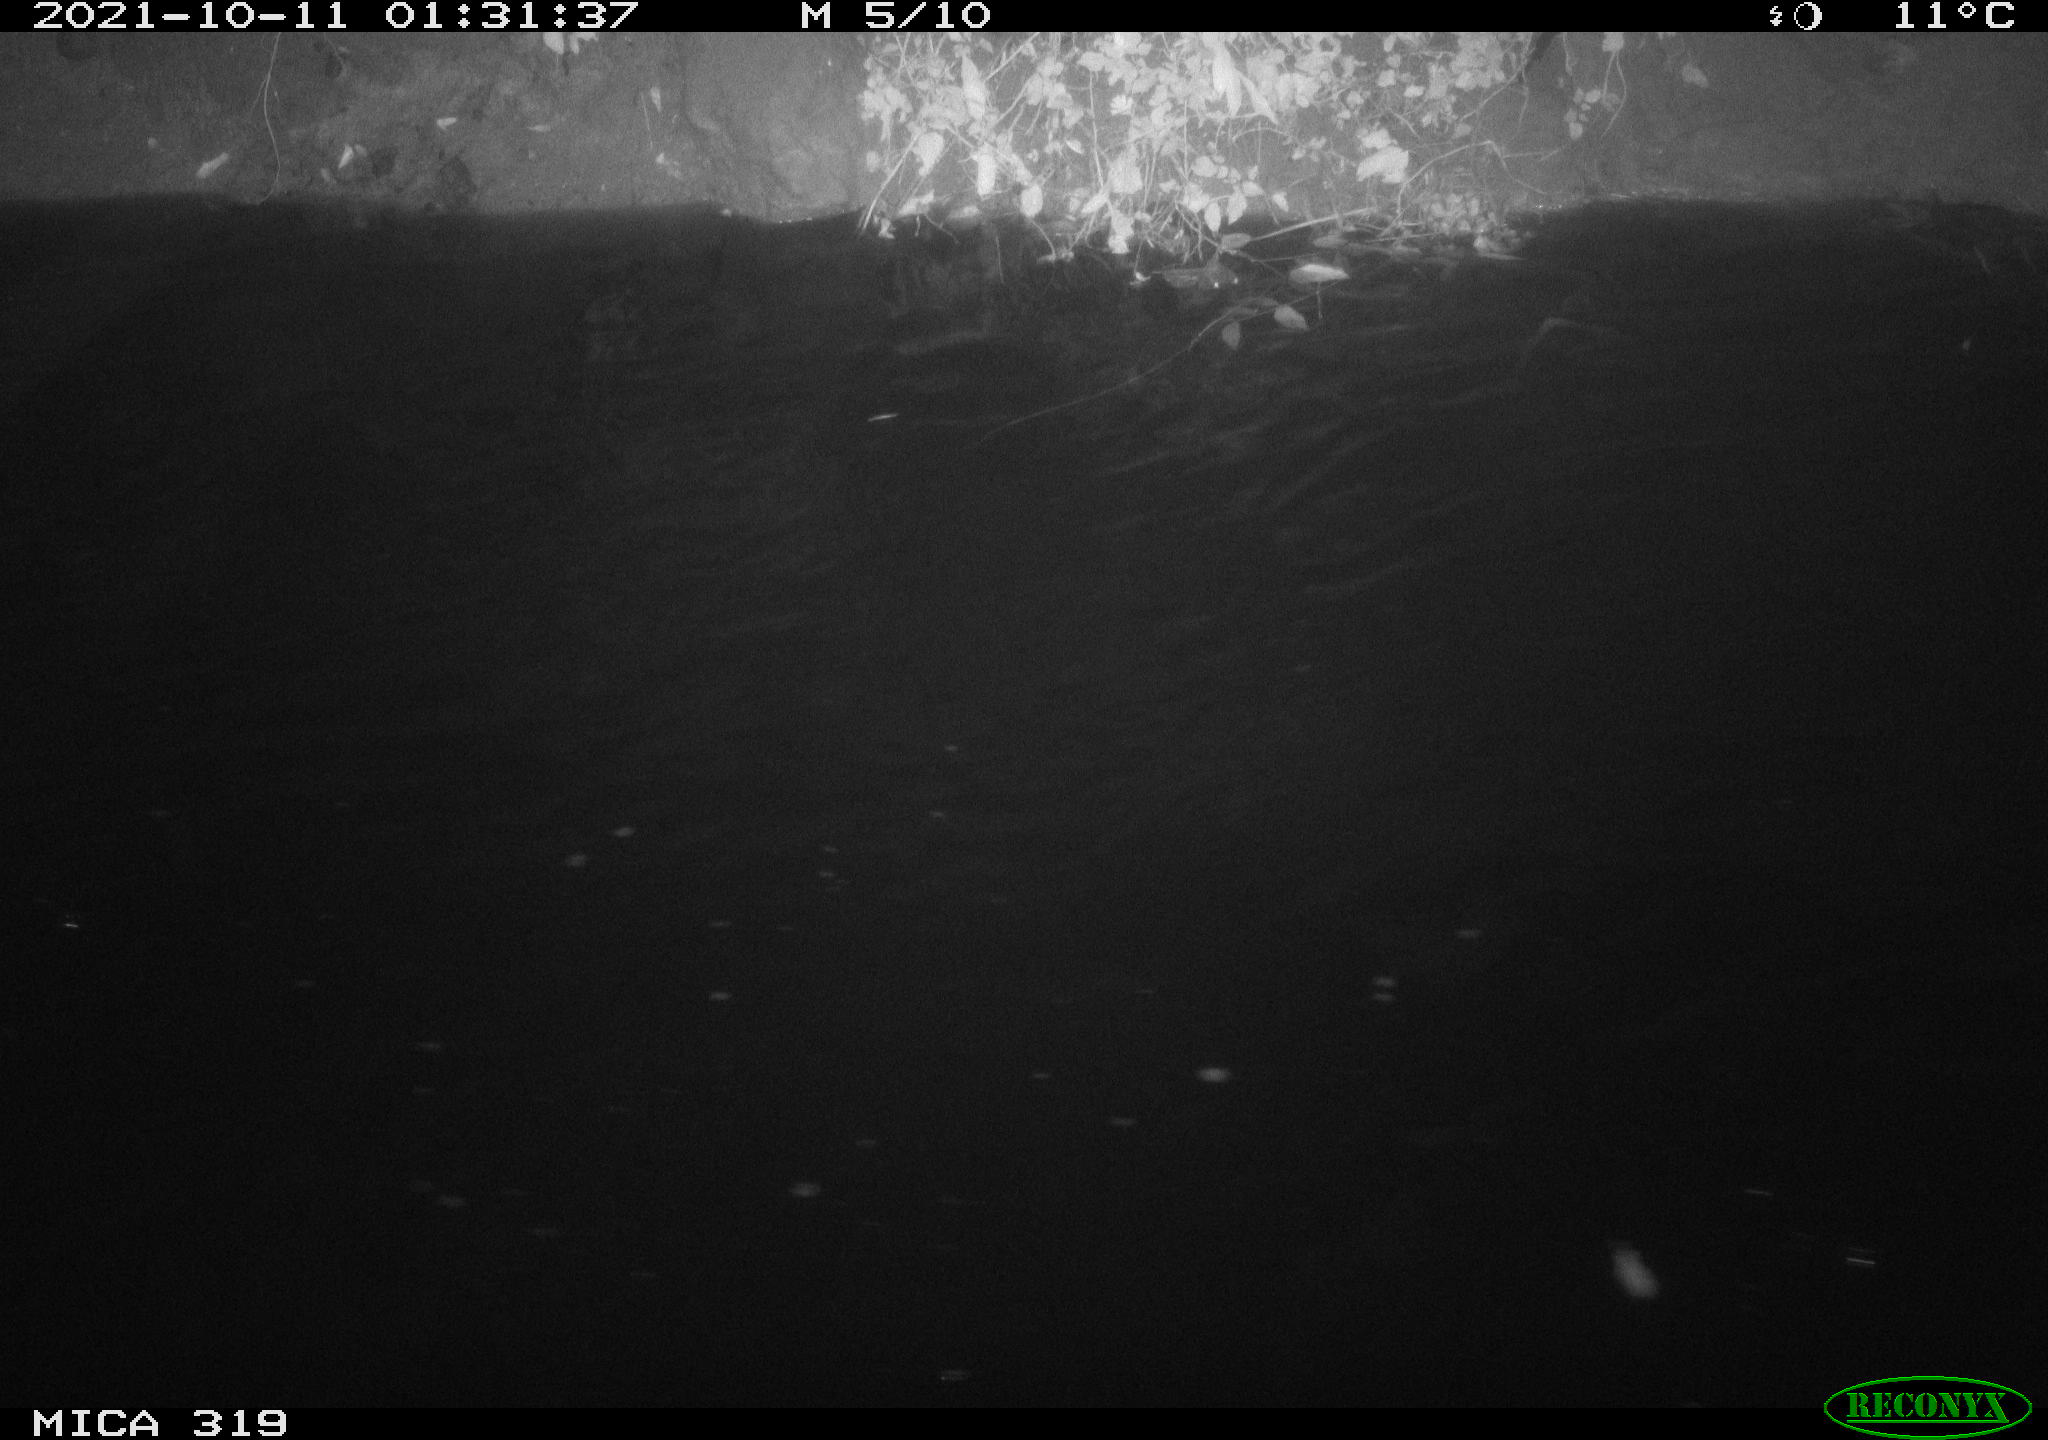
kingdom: Animalia
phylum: Chordata
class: Aves
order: Anseriformes
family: Anatidae
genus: Anas
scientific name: Anas platyrhynchos
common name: Mallard
